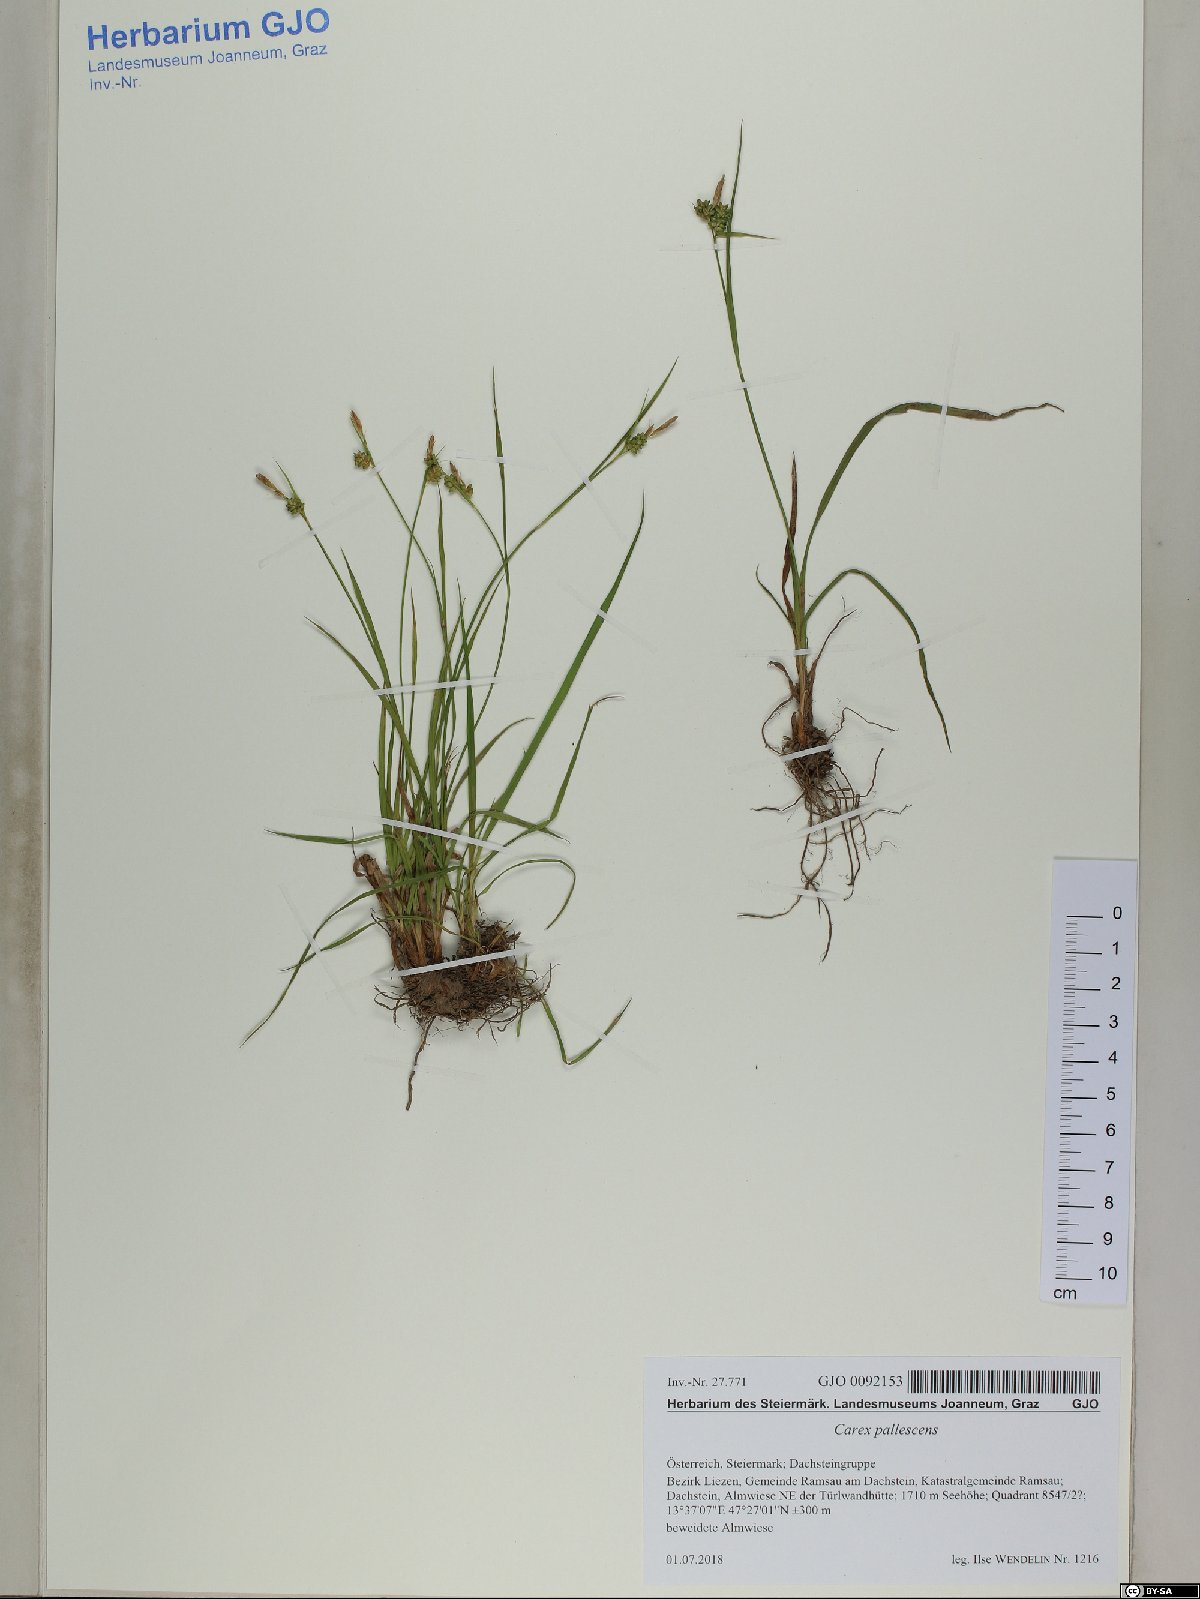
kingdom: Plantae
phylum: Tracheophyta
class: Liliopsida
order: Poales
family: Cyperaceae
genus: Carex
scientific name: Carex pallescens
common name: Pale sedge
